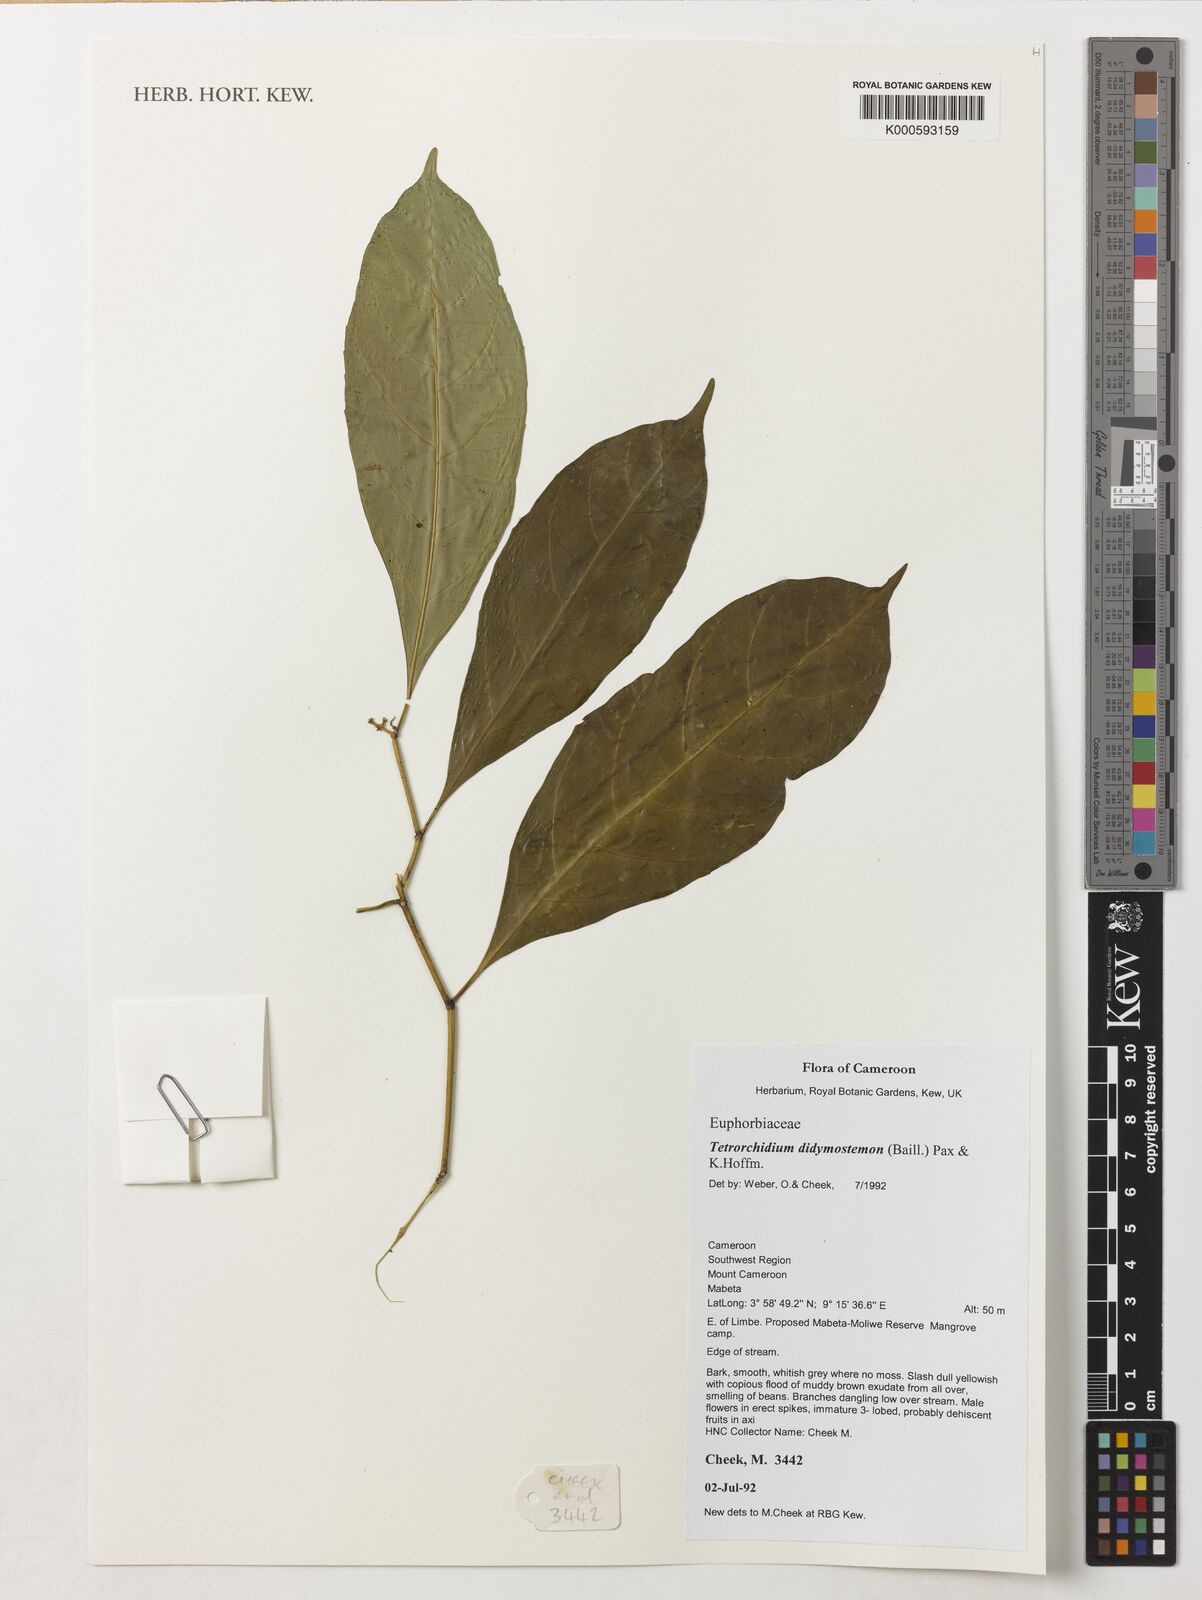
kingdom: Plantae
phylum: Tracheophyta
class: Magnoliopsida
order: Malpighiales
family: Euphorbiaceae
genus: Tetrorchidium
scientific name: Tetrorchidium didymostemon
